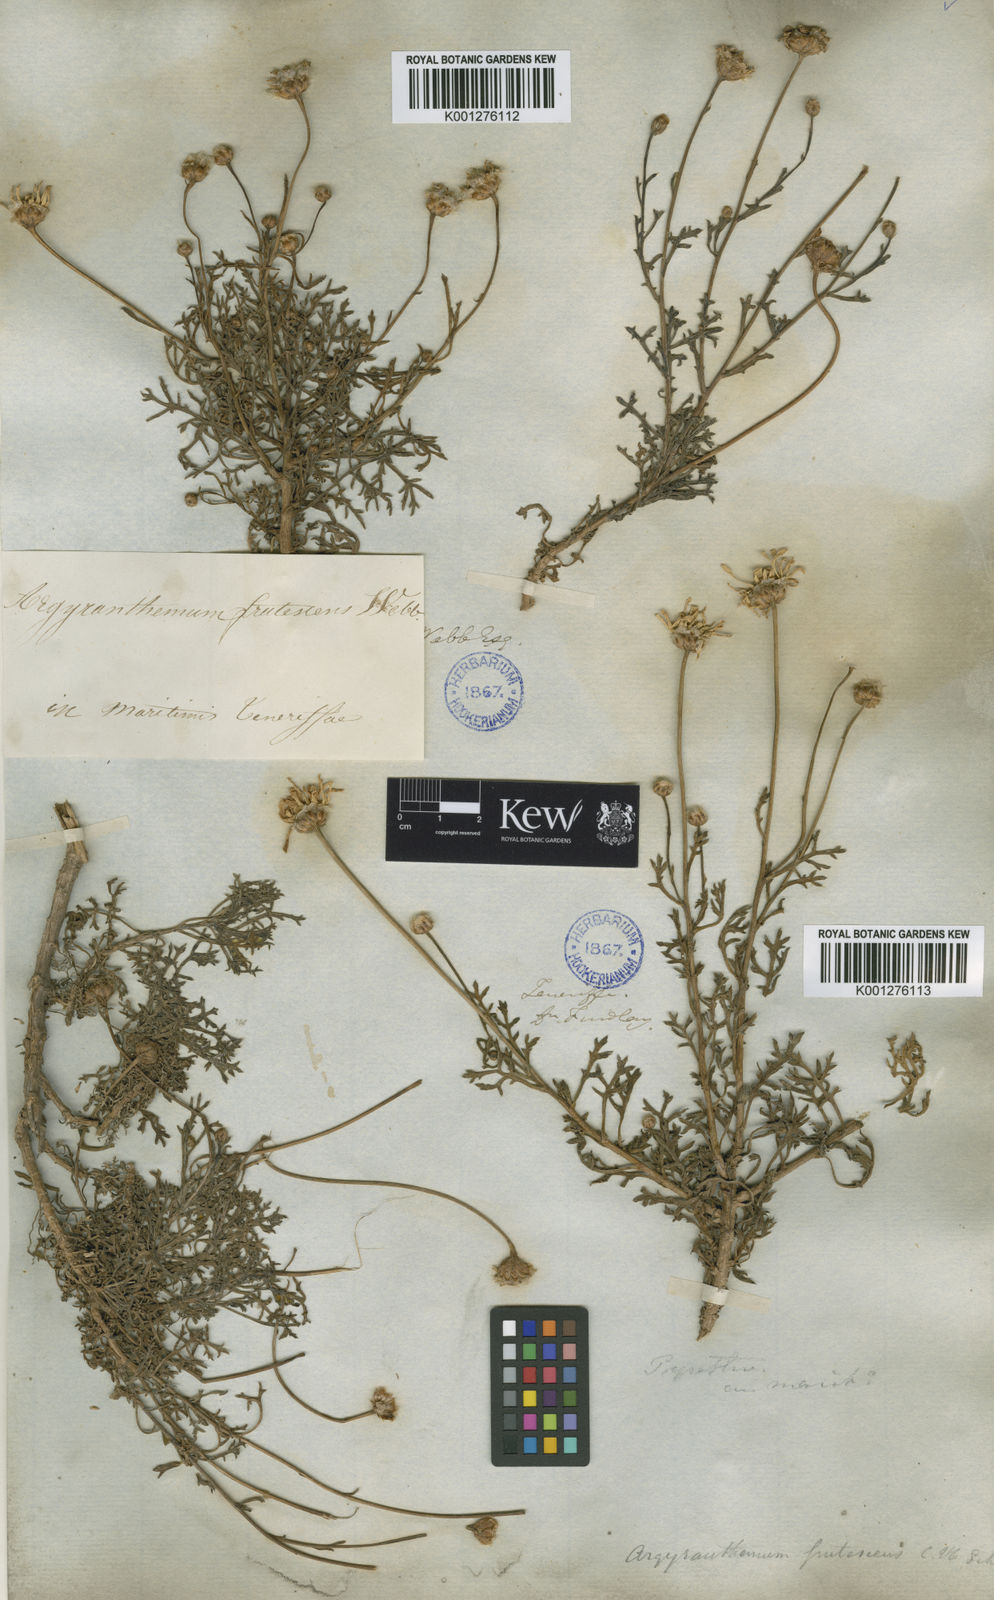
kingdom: Plantae
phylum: Tracheophyta
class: Magnoliopsida
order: Asterales
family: Asteraceae
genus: Argyranthemum
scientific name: Argyranthemum frutescens
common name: Paris daisy
